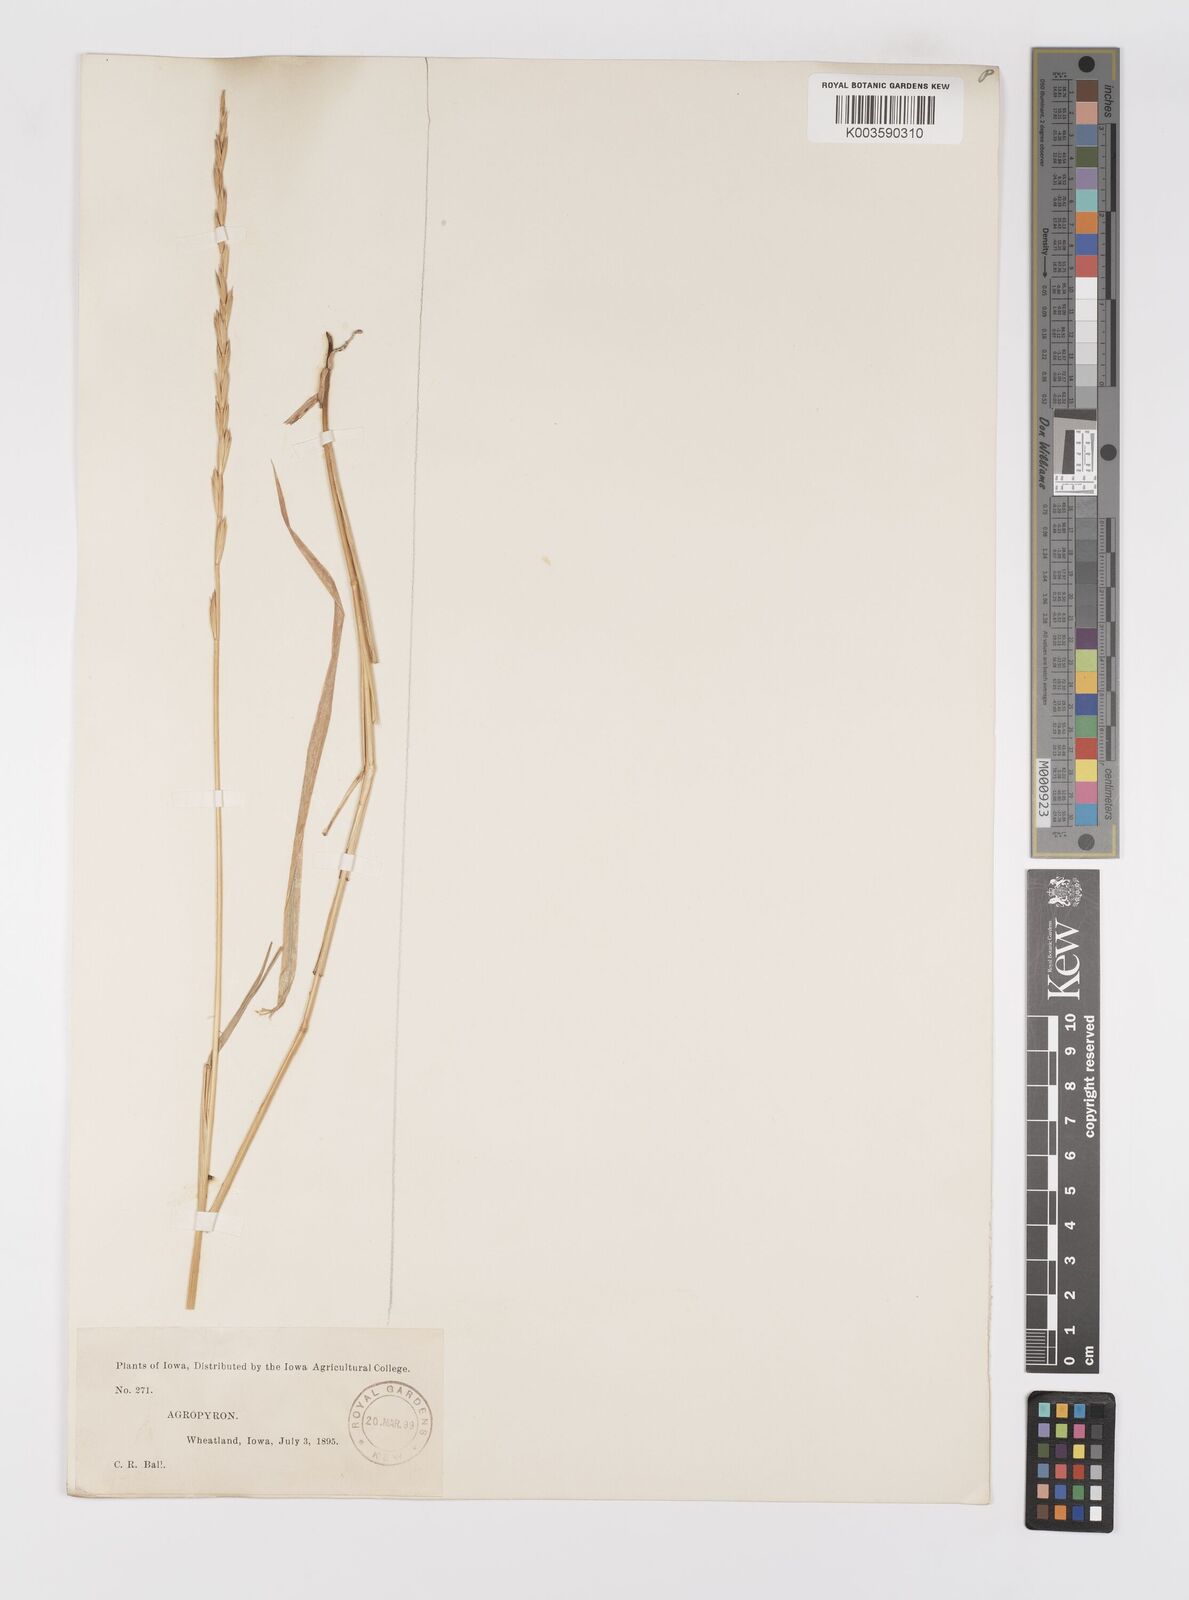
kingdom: Plantae
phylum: Tracheophyta
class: Liliopsida
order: Poales
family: Poaceae
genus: Elymus
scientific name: Elymus
